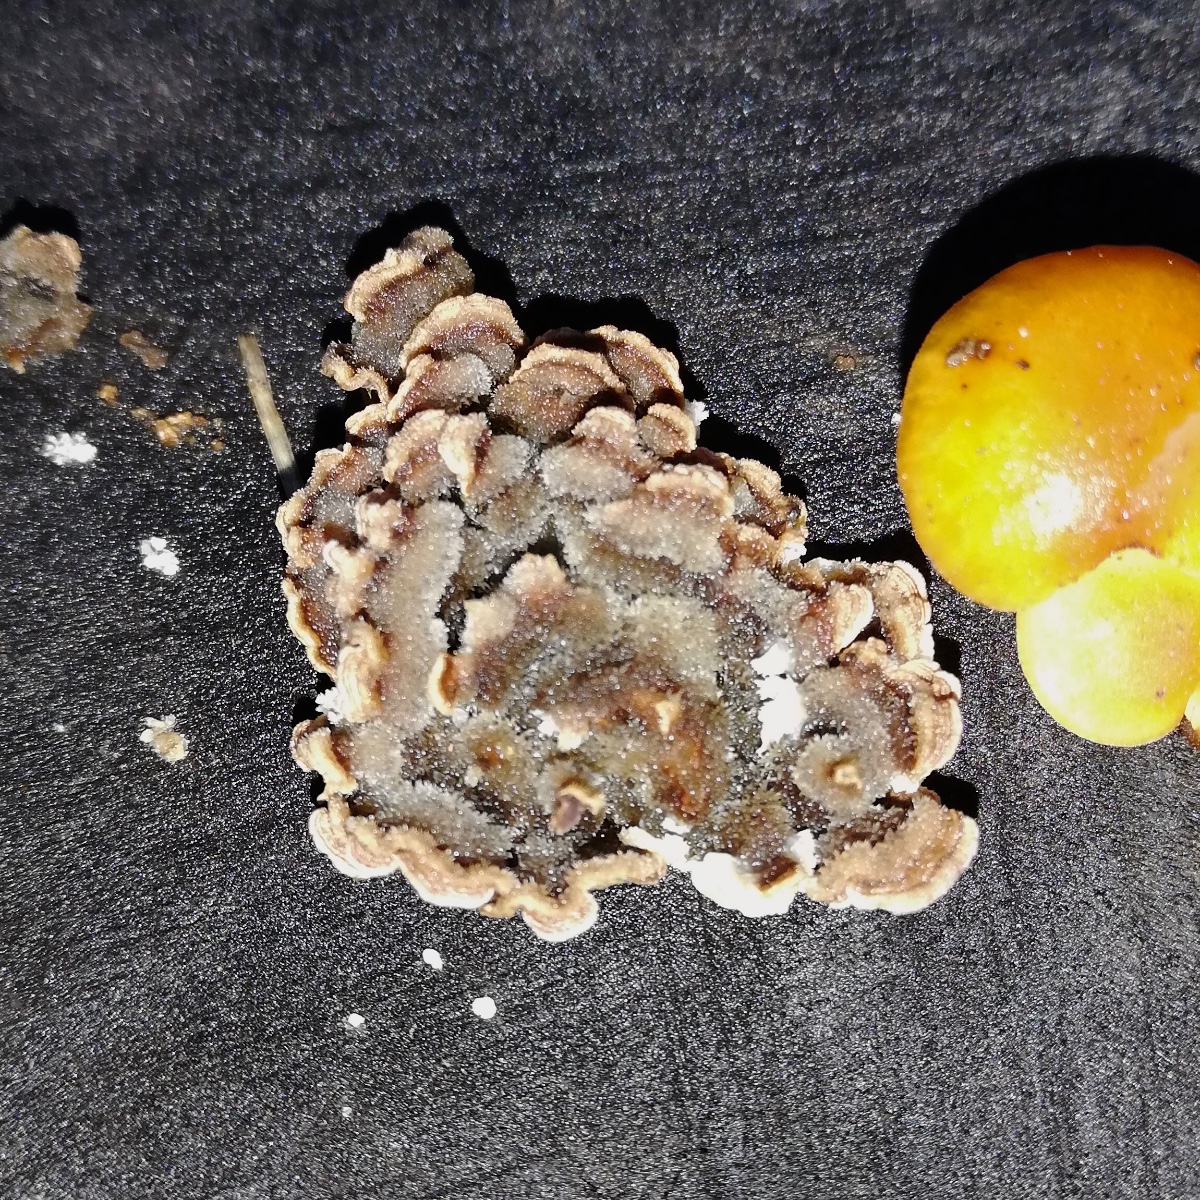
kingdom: Fungi
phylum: Basidiomycota
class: Agaricomycetes
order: Polyporales
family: Polyporaceae
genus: Trametes
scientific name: Trametes versicolor
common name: broget læderporesvamp
